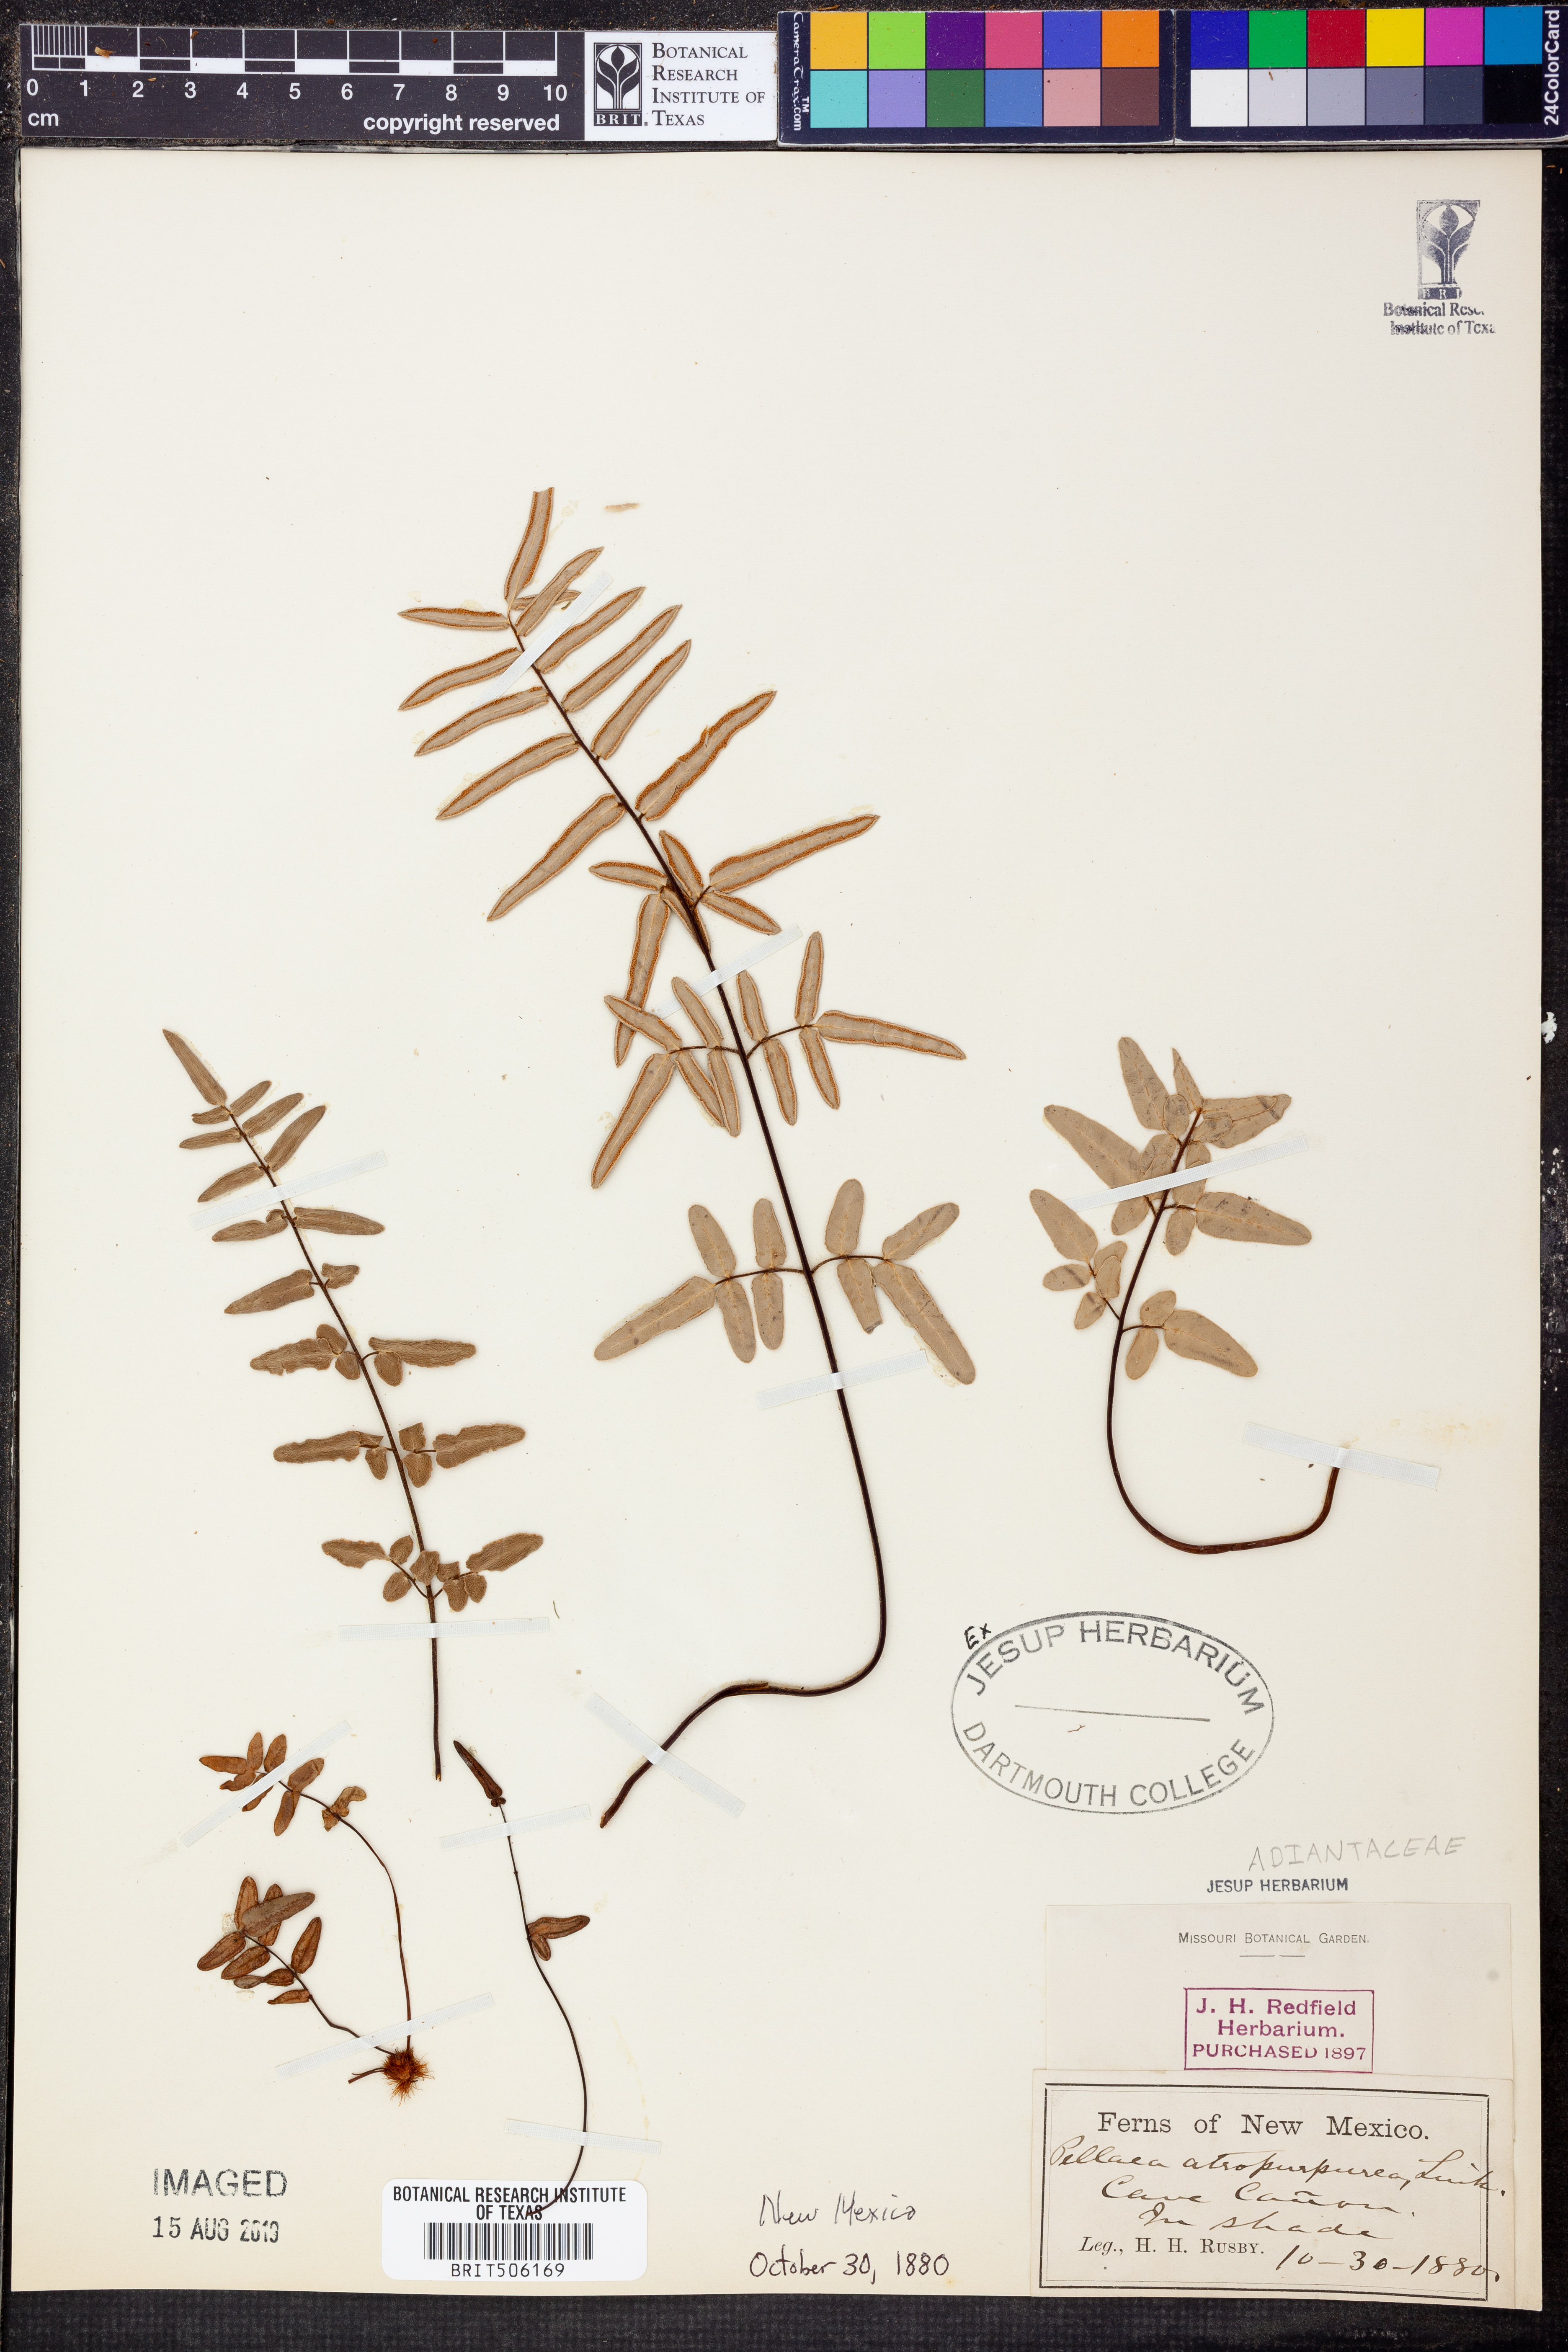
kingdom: Plantae
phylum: Tracheophyta
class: Polypodiopsida
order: Polypodiales
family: Pteridaceae
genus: Pellaea
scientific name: Pellaea atropurpurea
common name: Hairy cliffbrake
